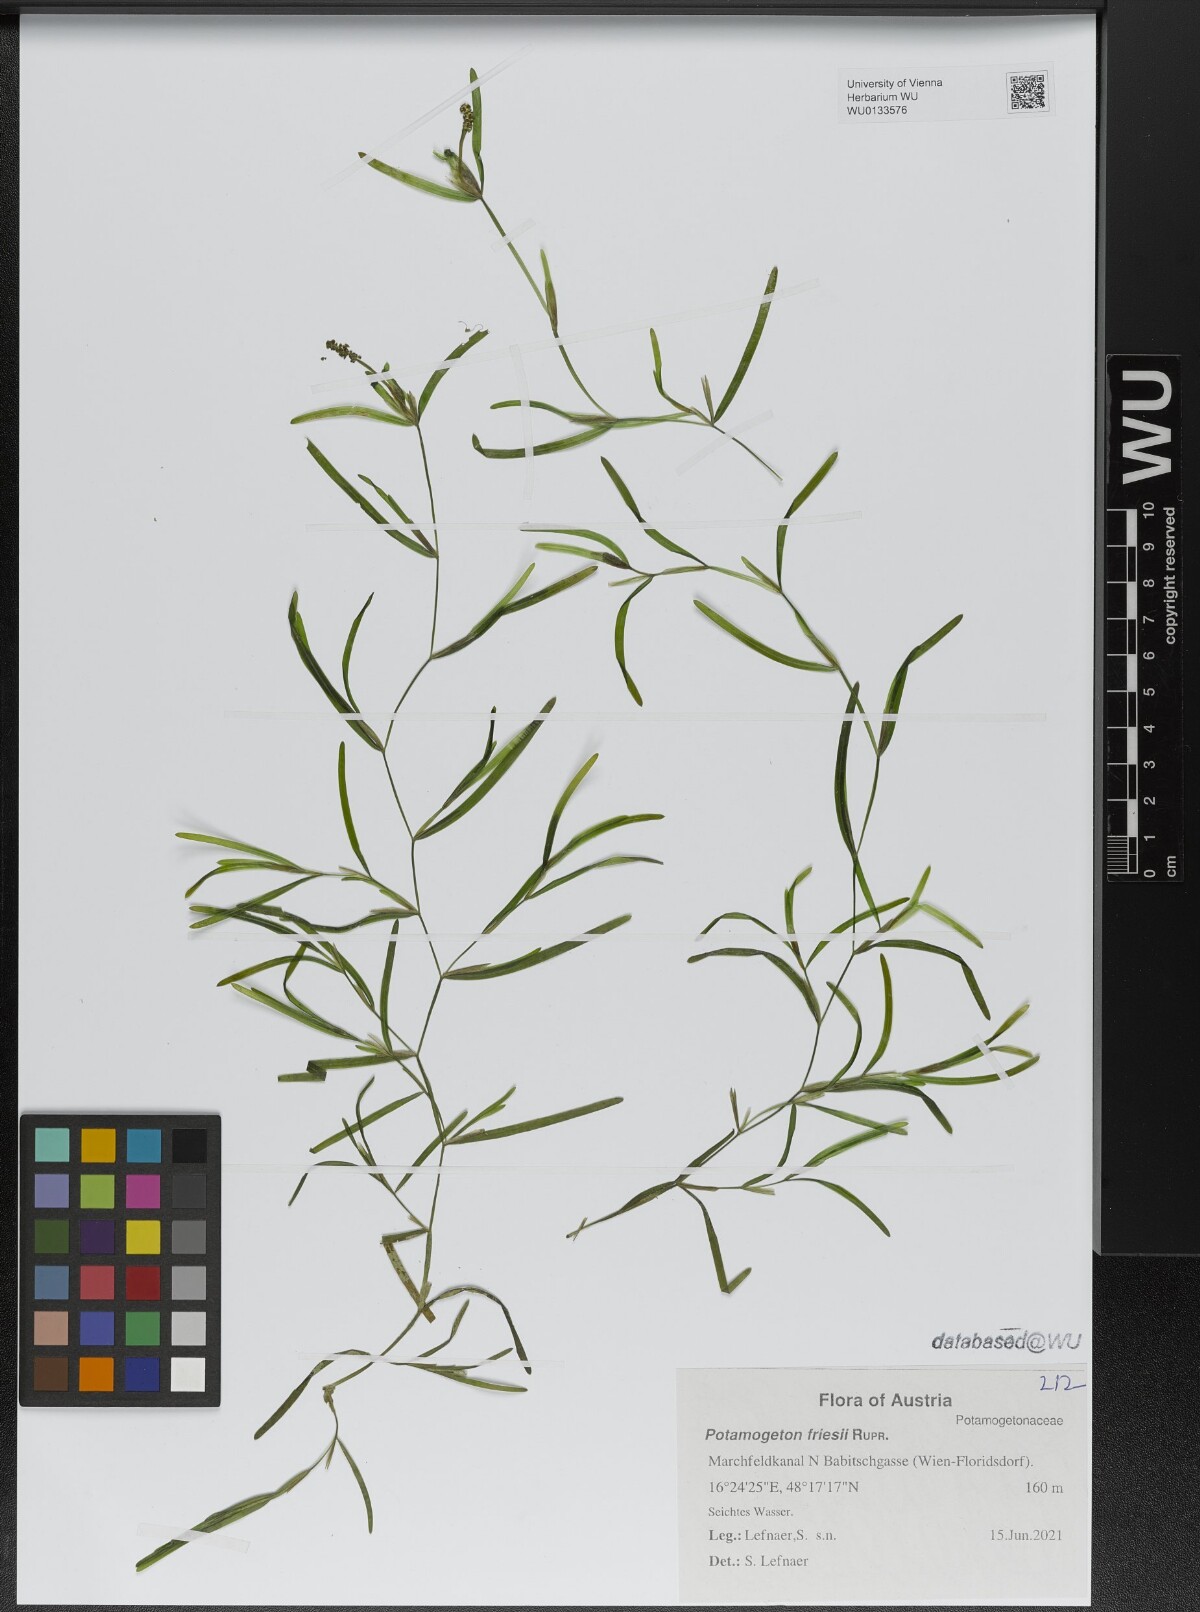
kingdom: Plantae
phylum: Tracheophyta
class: Liliopsida
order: Alismatales
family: Potamogetonaceae
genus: Potamogeton
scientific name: Potamogeton friesii
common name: Flat-stalked pondweed
